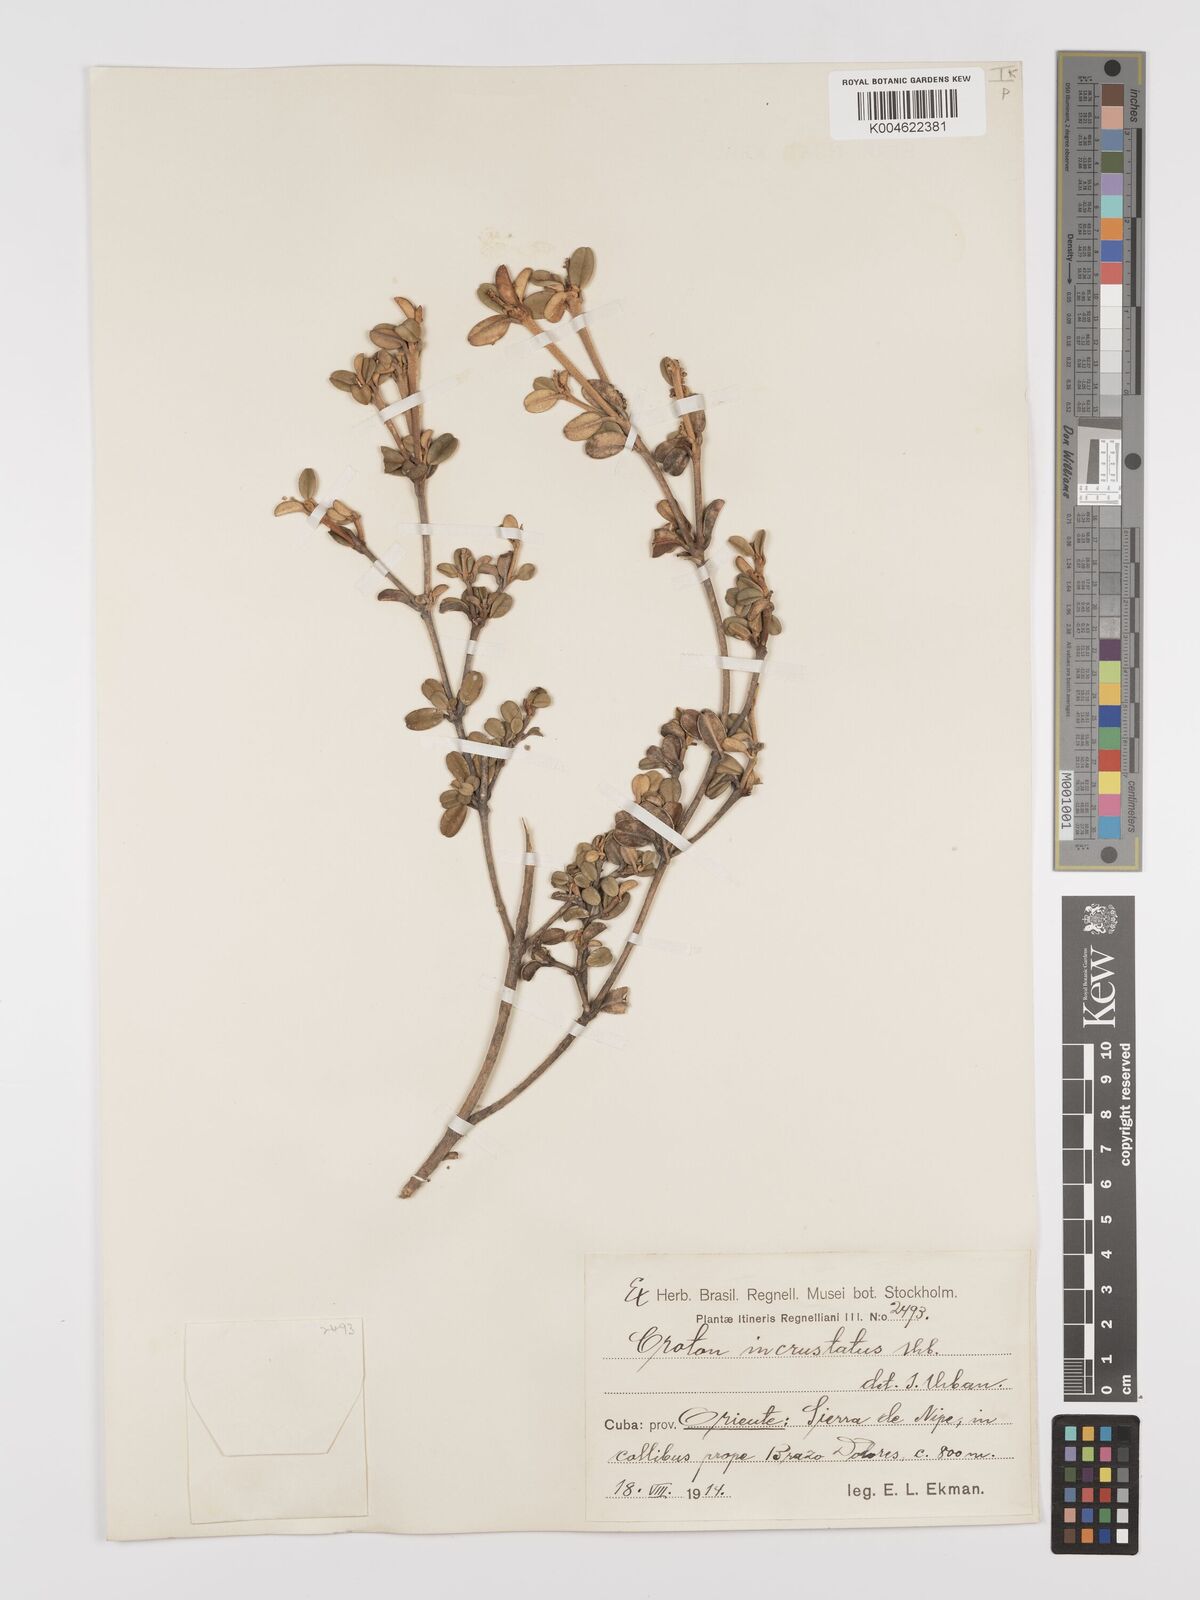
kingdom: Plantae
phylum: Tracheophyta
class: Magnoliopsida
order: Malpighiales
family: Euphorbiaceae
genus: Croton
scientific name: Croton monogynus
